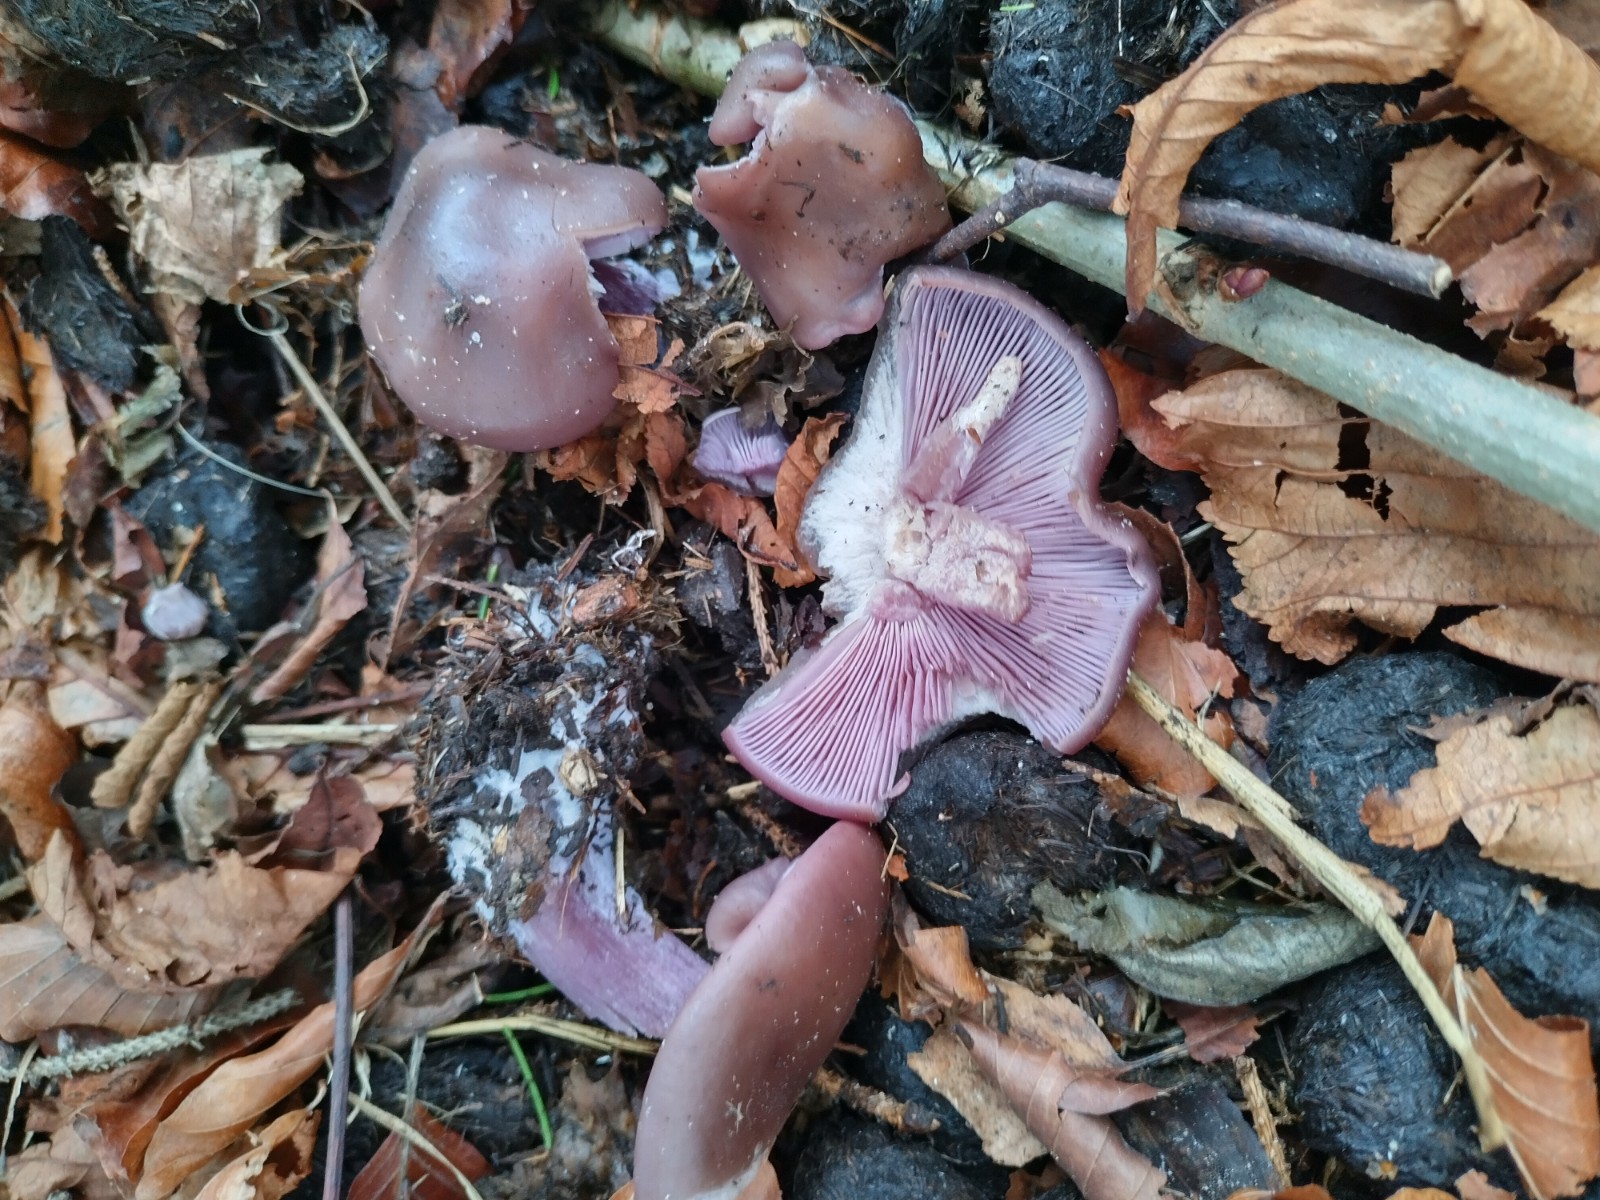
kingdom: Fungi
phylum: Basidiomycota
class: Agaricomycetes
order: Agaricales
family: Tricholomataceae
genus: Lepista
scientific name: Lepista lilacea
